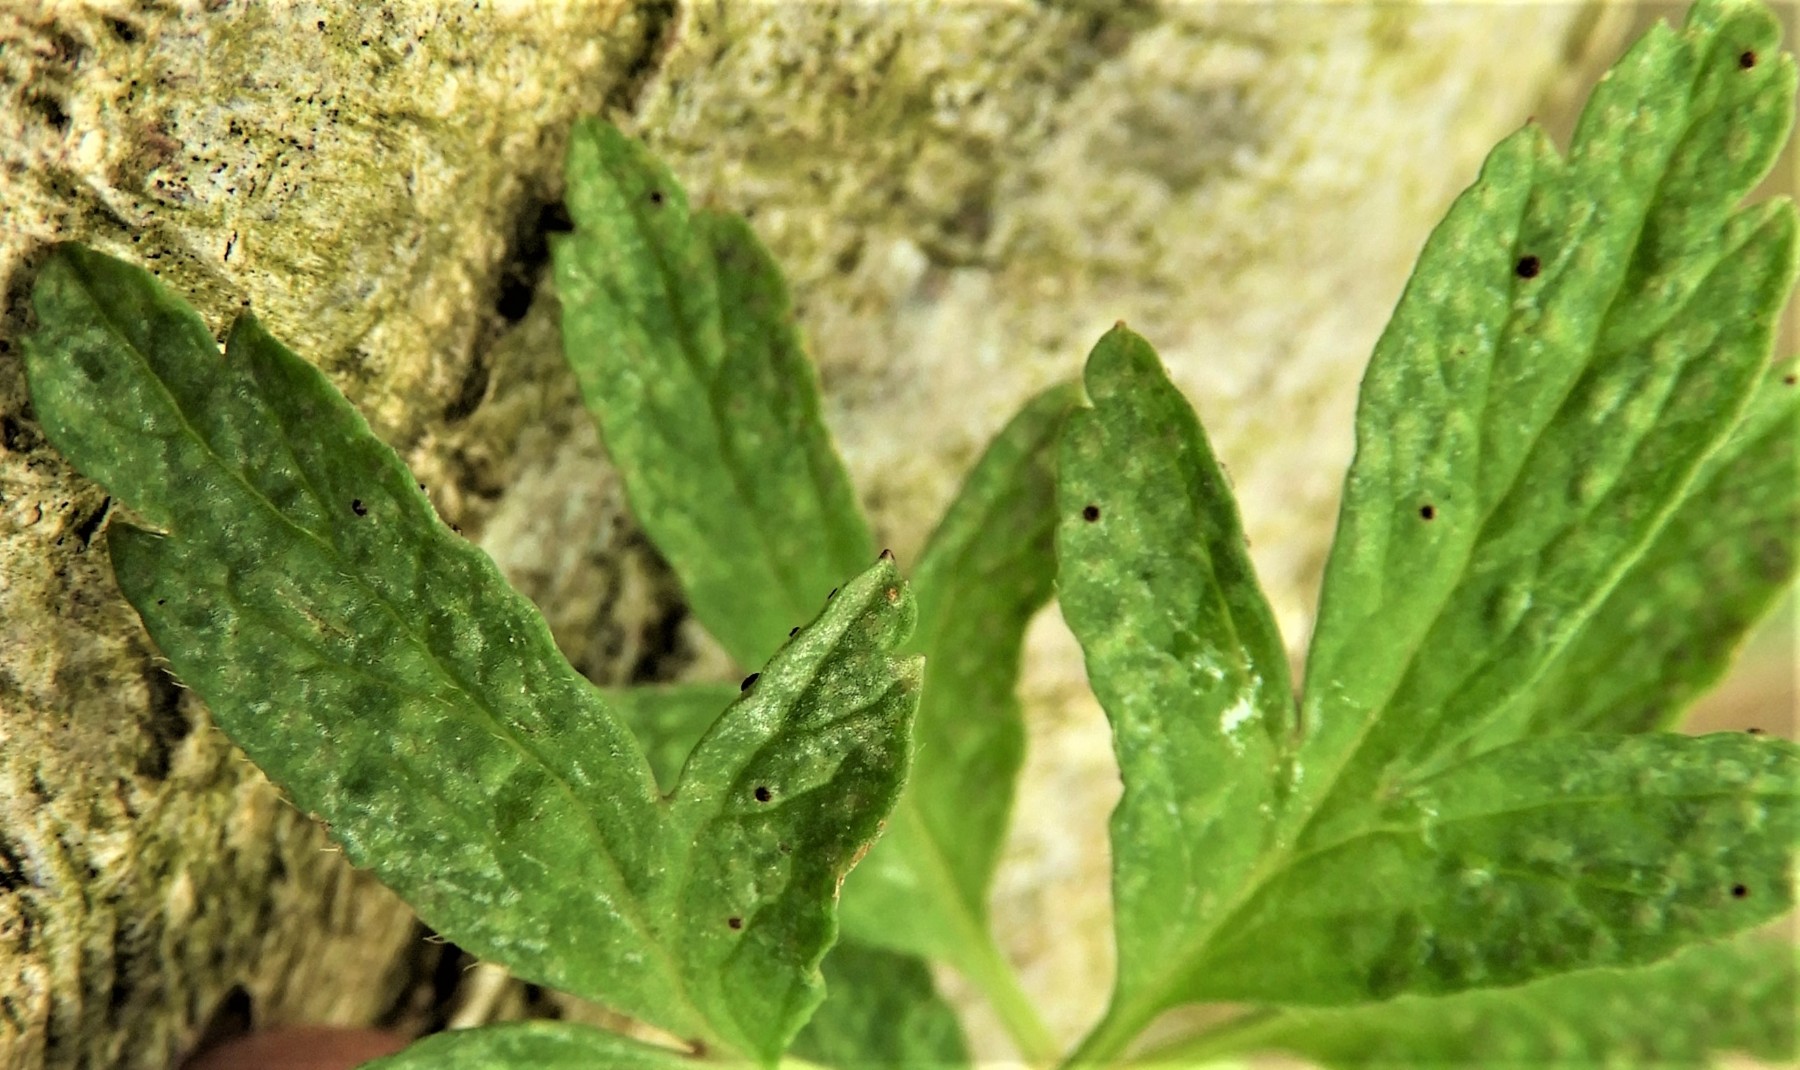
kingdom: Fungi
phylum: Basidiomycota
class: Pucciniomycetes
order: Pucciniales
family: Tranzscheliaceae
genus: Tranzschelia
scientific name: Tranzschelia anemones
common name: anemone-knæksporerust
